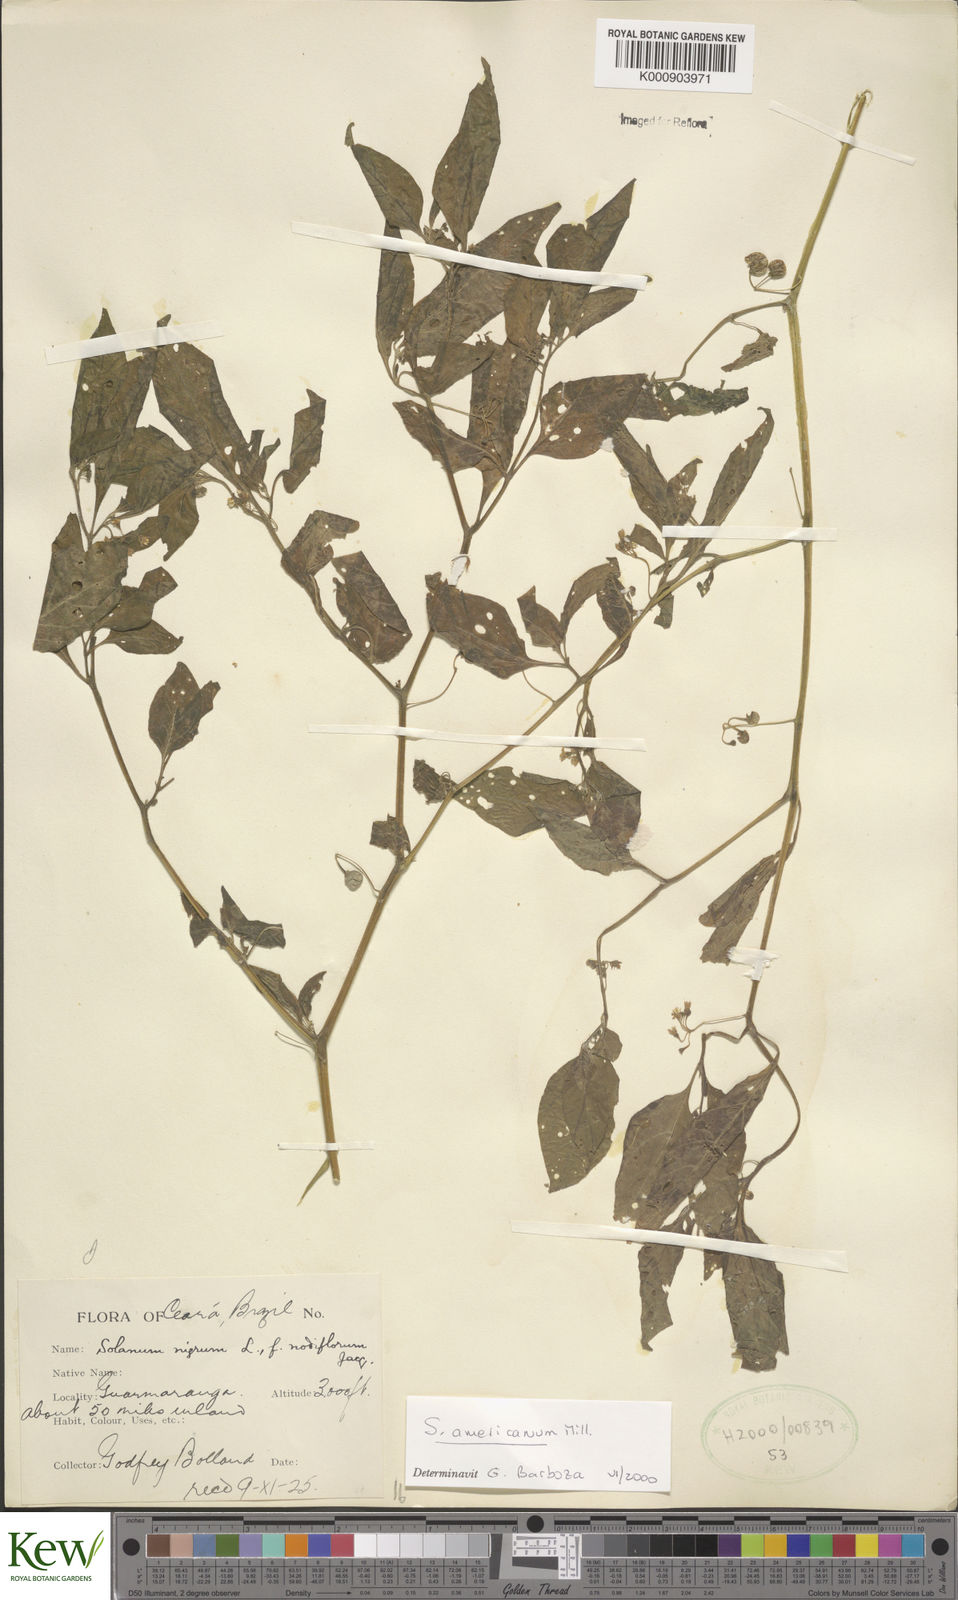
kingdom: Plantae
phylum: Tracheophyta
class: Magnoliopsida
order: Solanales
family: Solanaceae
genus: Solanum
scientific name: Solanum americanum
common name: American black nightshade
